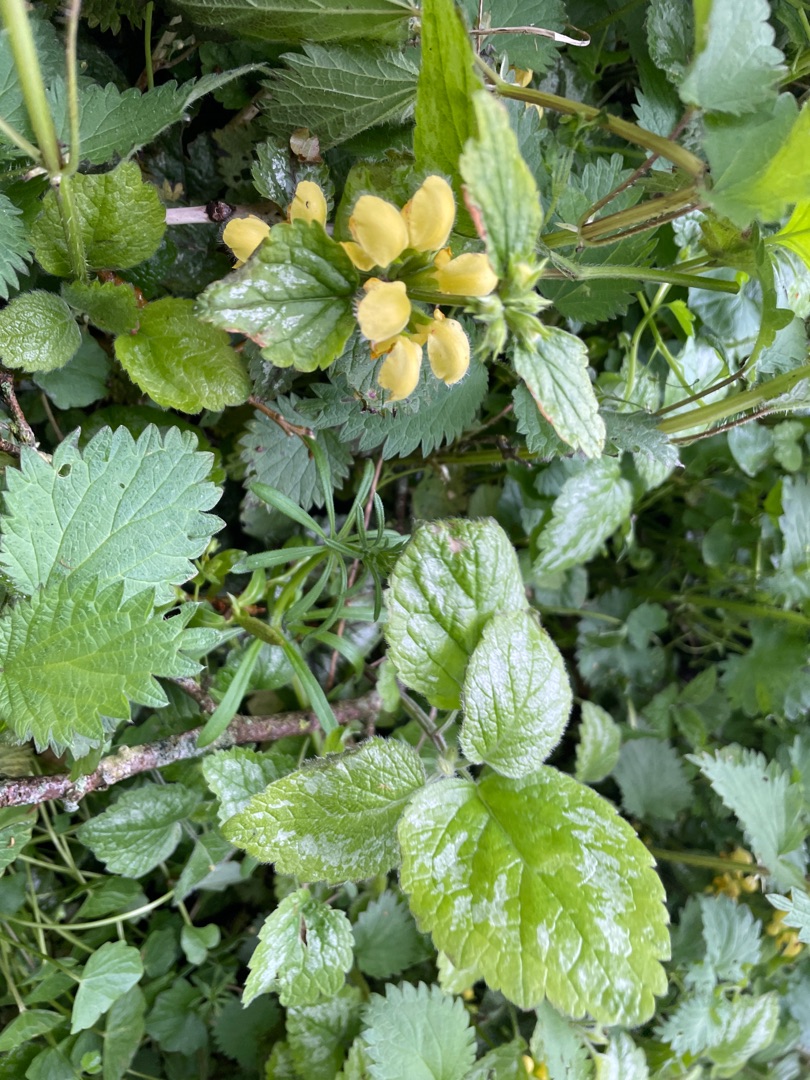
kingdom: Plantae
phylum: Tracheophyta
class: Magnoliopsida
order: Lamiales
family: Lamiaceae
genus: Lamium
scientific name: Lamium galeobdolon
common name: Have-guldnælde
